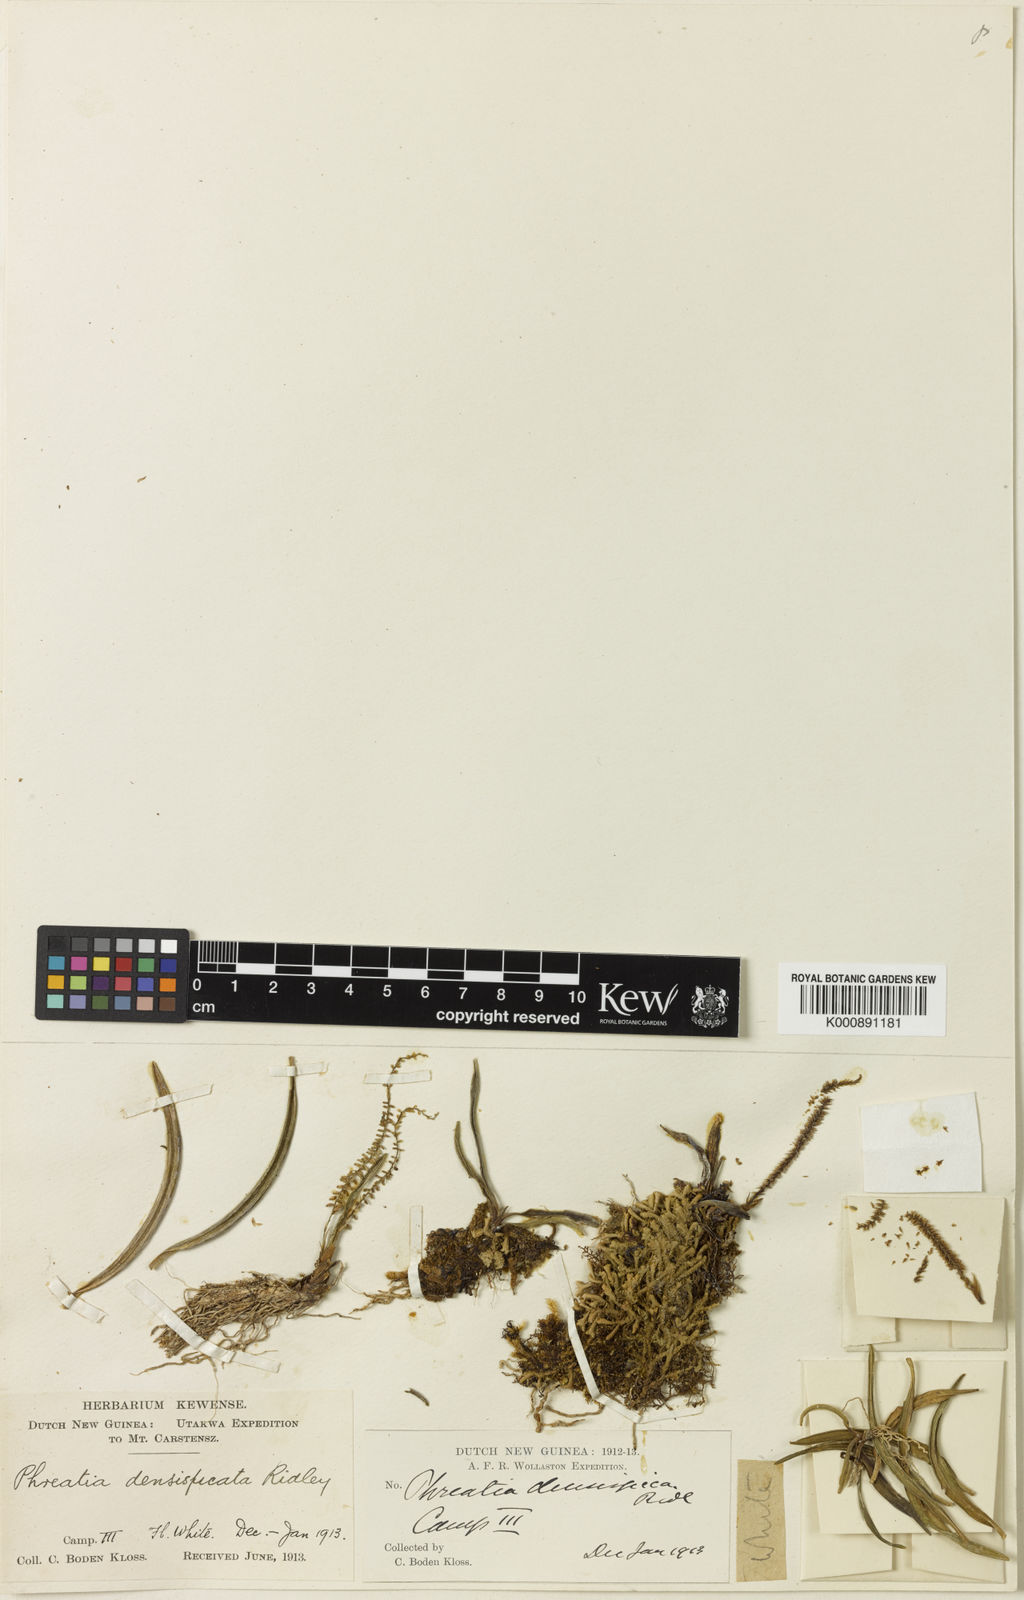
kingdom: Plantae
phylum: Tracheophyta
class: Liliopsida
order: Asparagales
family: Orchidaceae
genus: Phreatia
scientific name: Phreatia densispica
